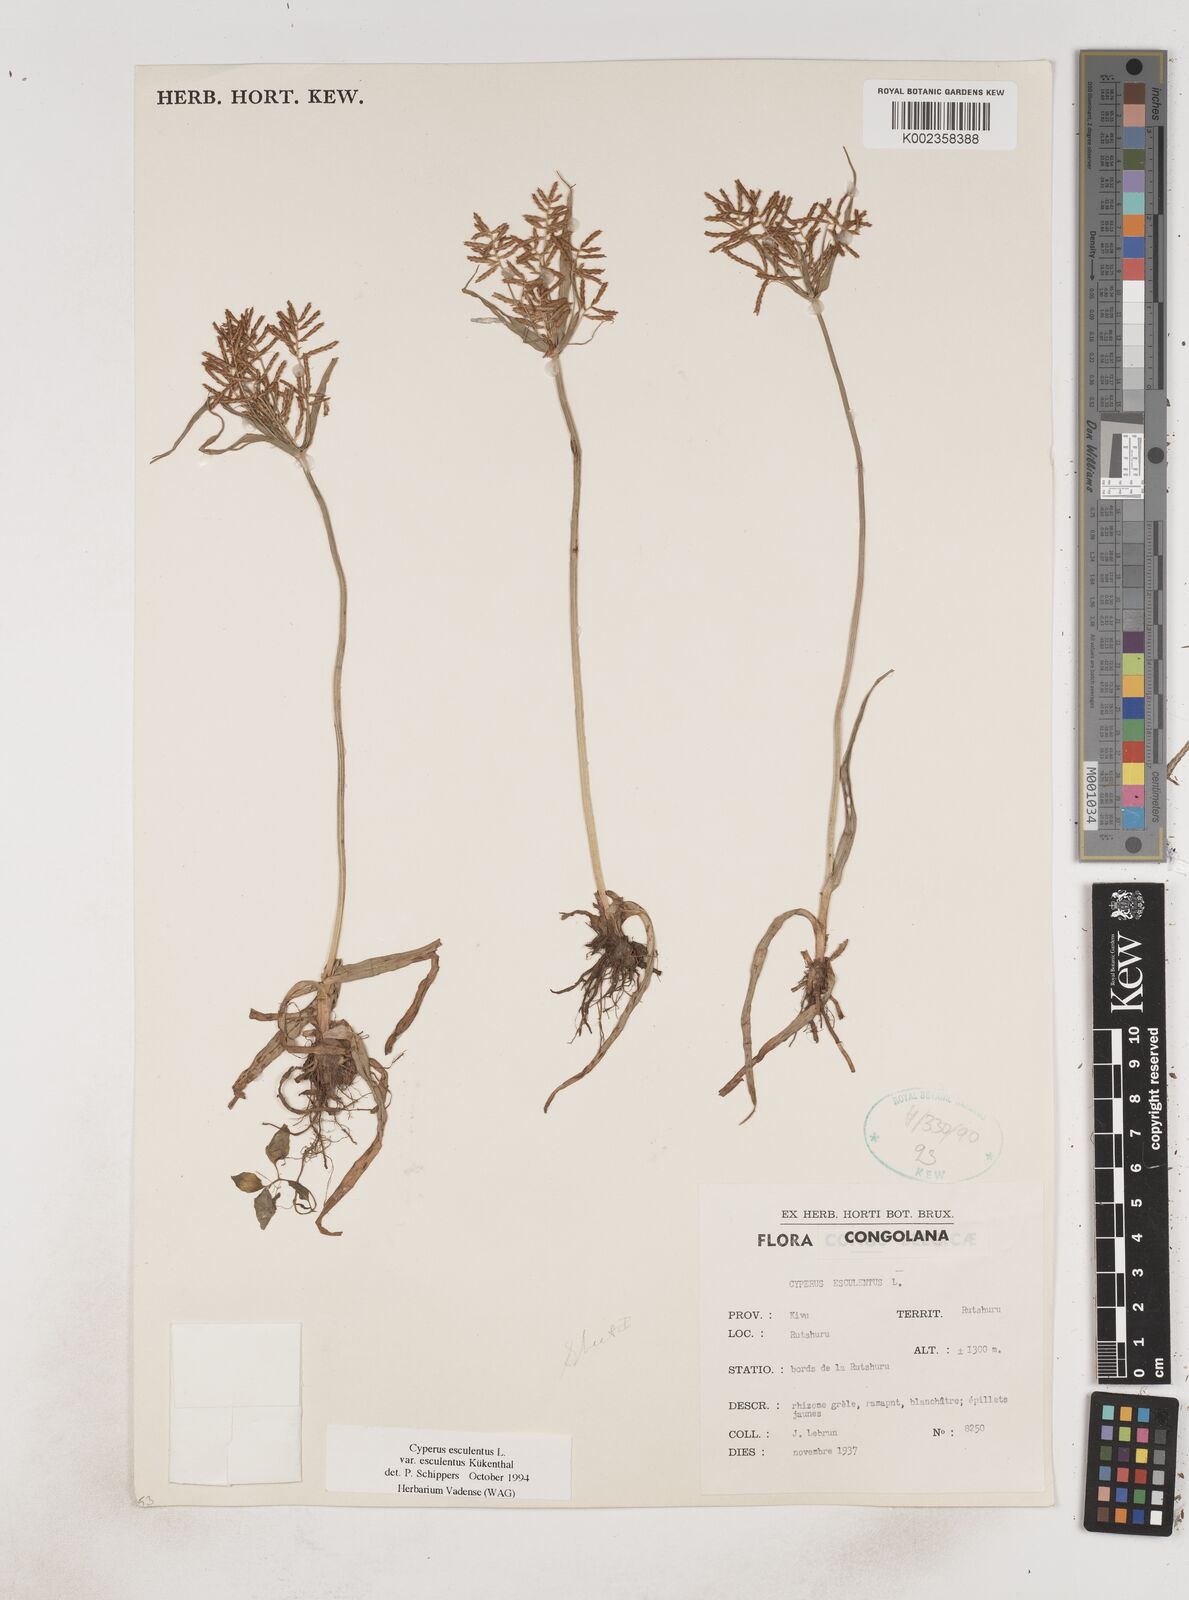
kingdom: Plantae
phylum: Tracheophyta
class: Liliopsida
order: Poales
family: Cyperaceae
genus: Cyperus
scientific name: Cyperus esculentus
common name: Yellow nutsedge
